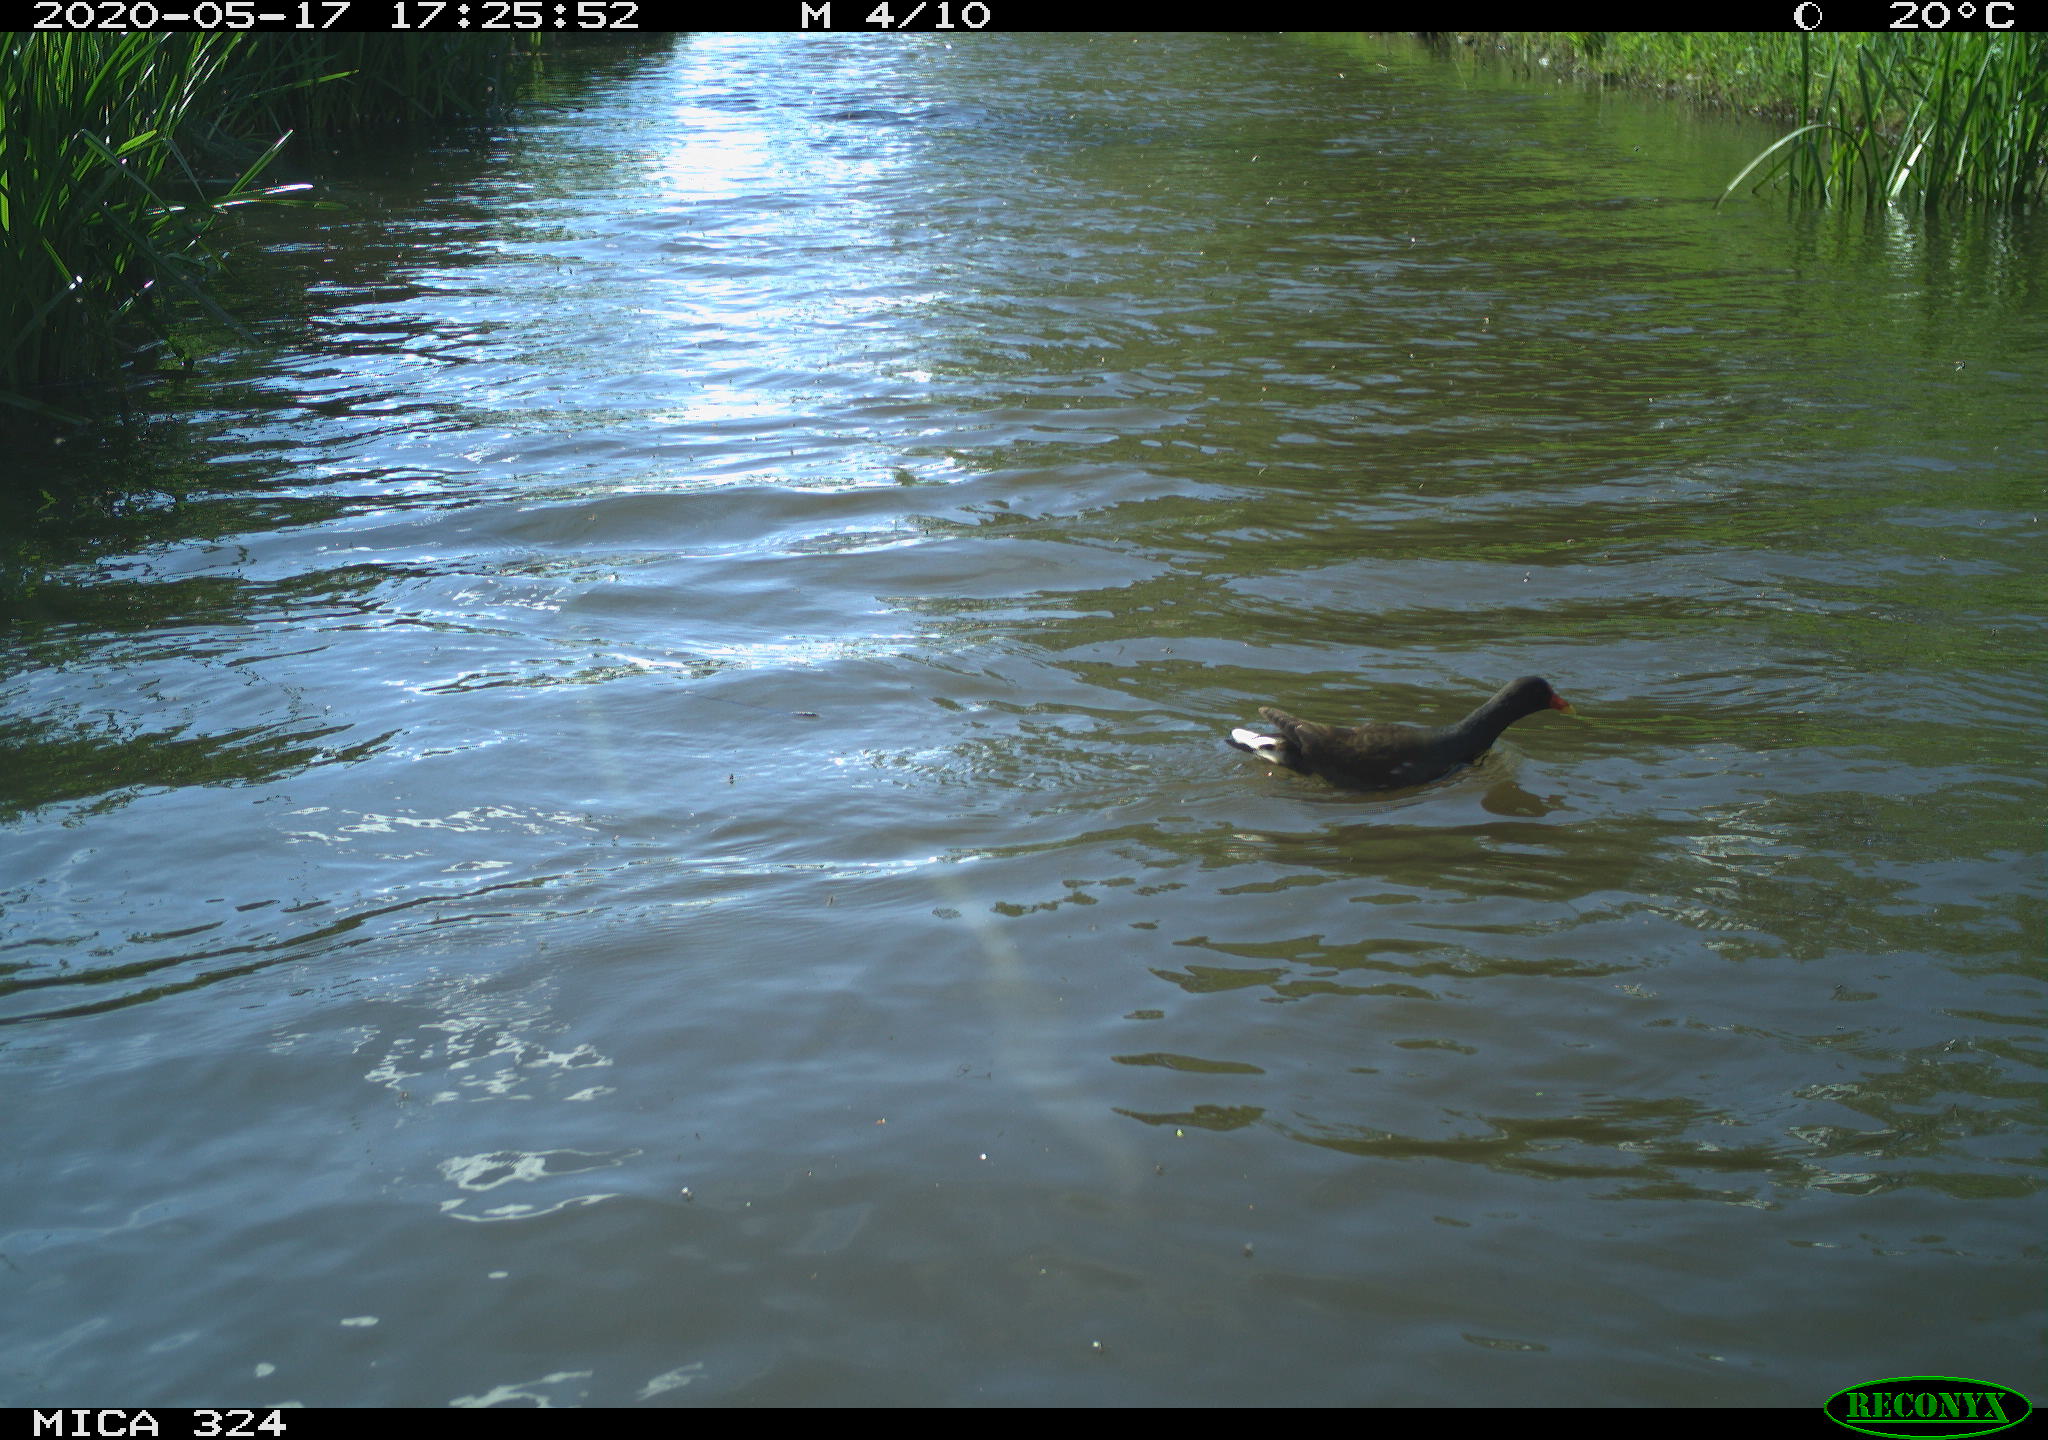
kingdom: Animalia
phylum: Chordata
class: Aves
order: Gruiformes
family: Rallidae
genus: Gallinula
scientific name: Gallinula chloropus
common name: Common moorhen
